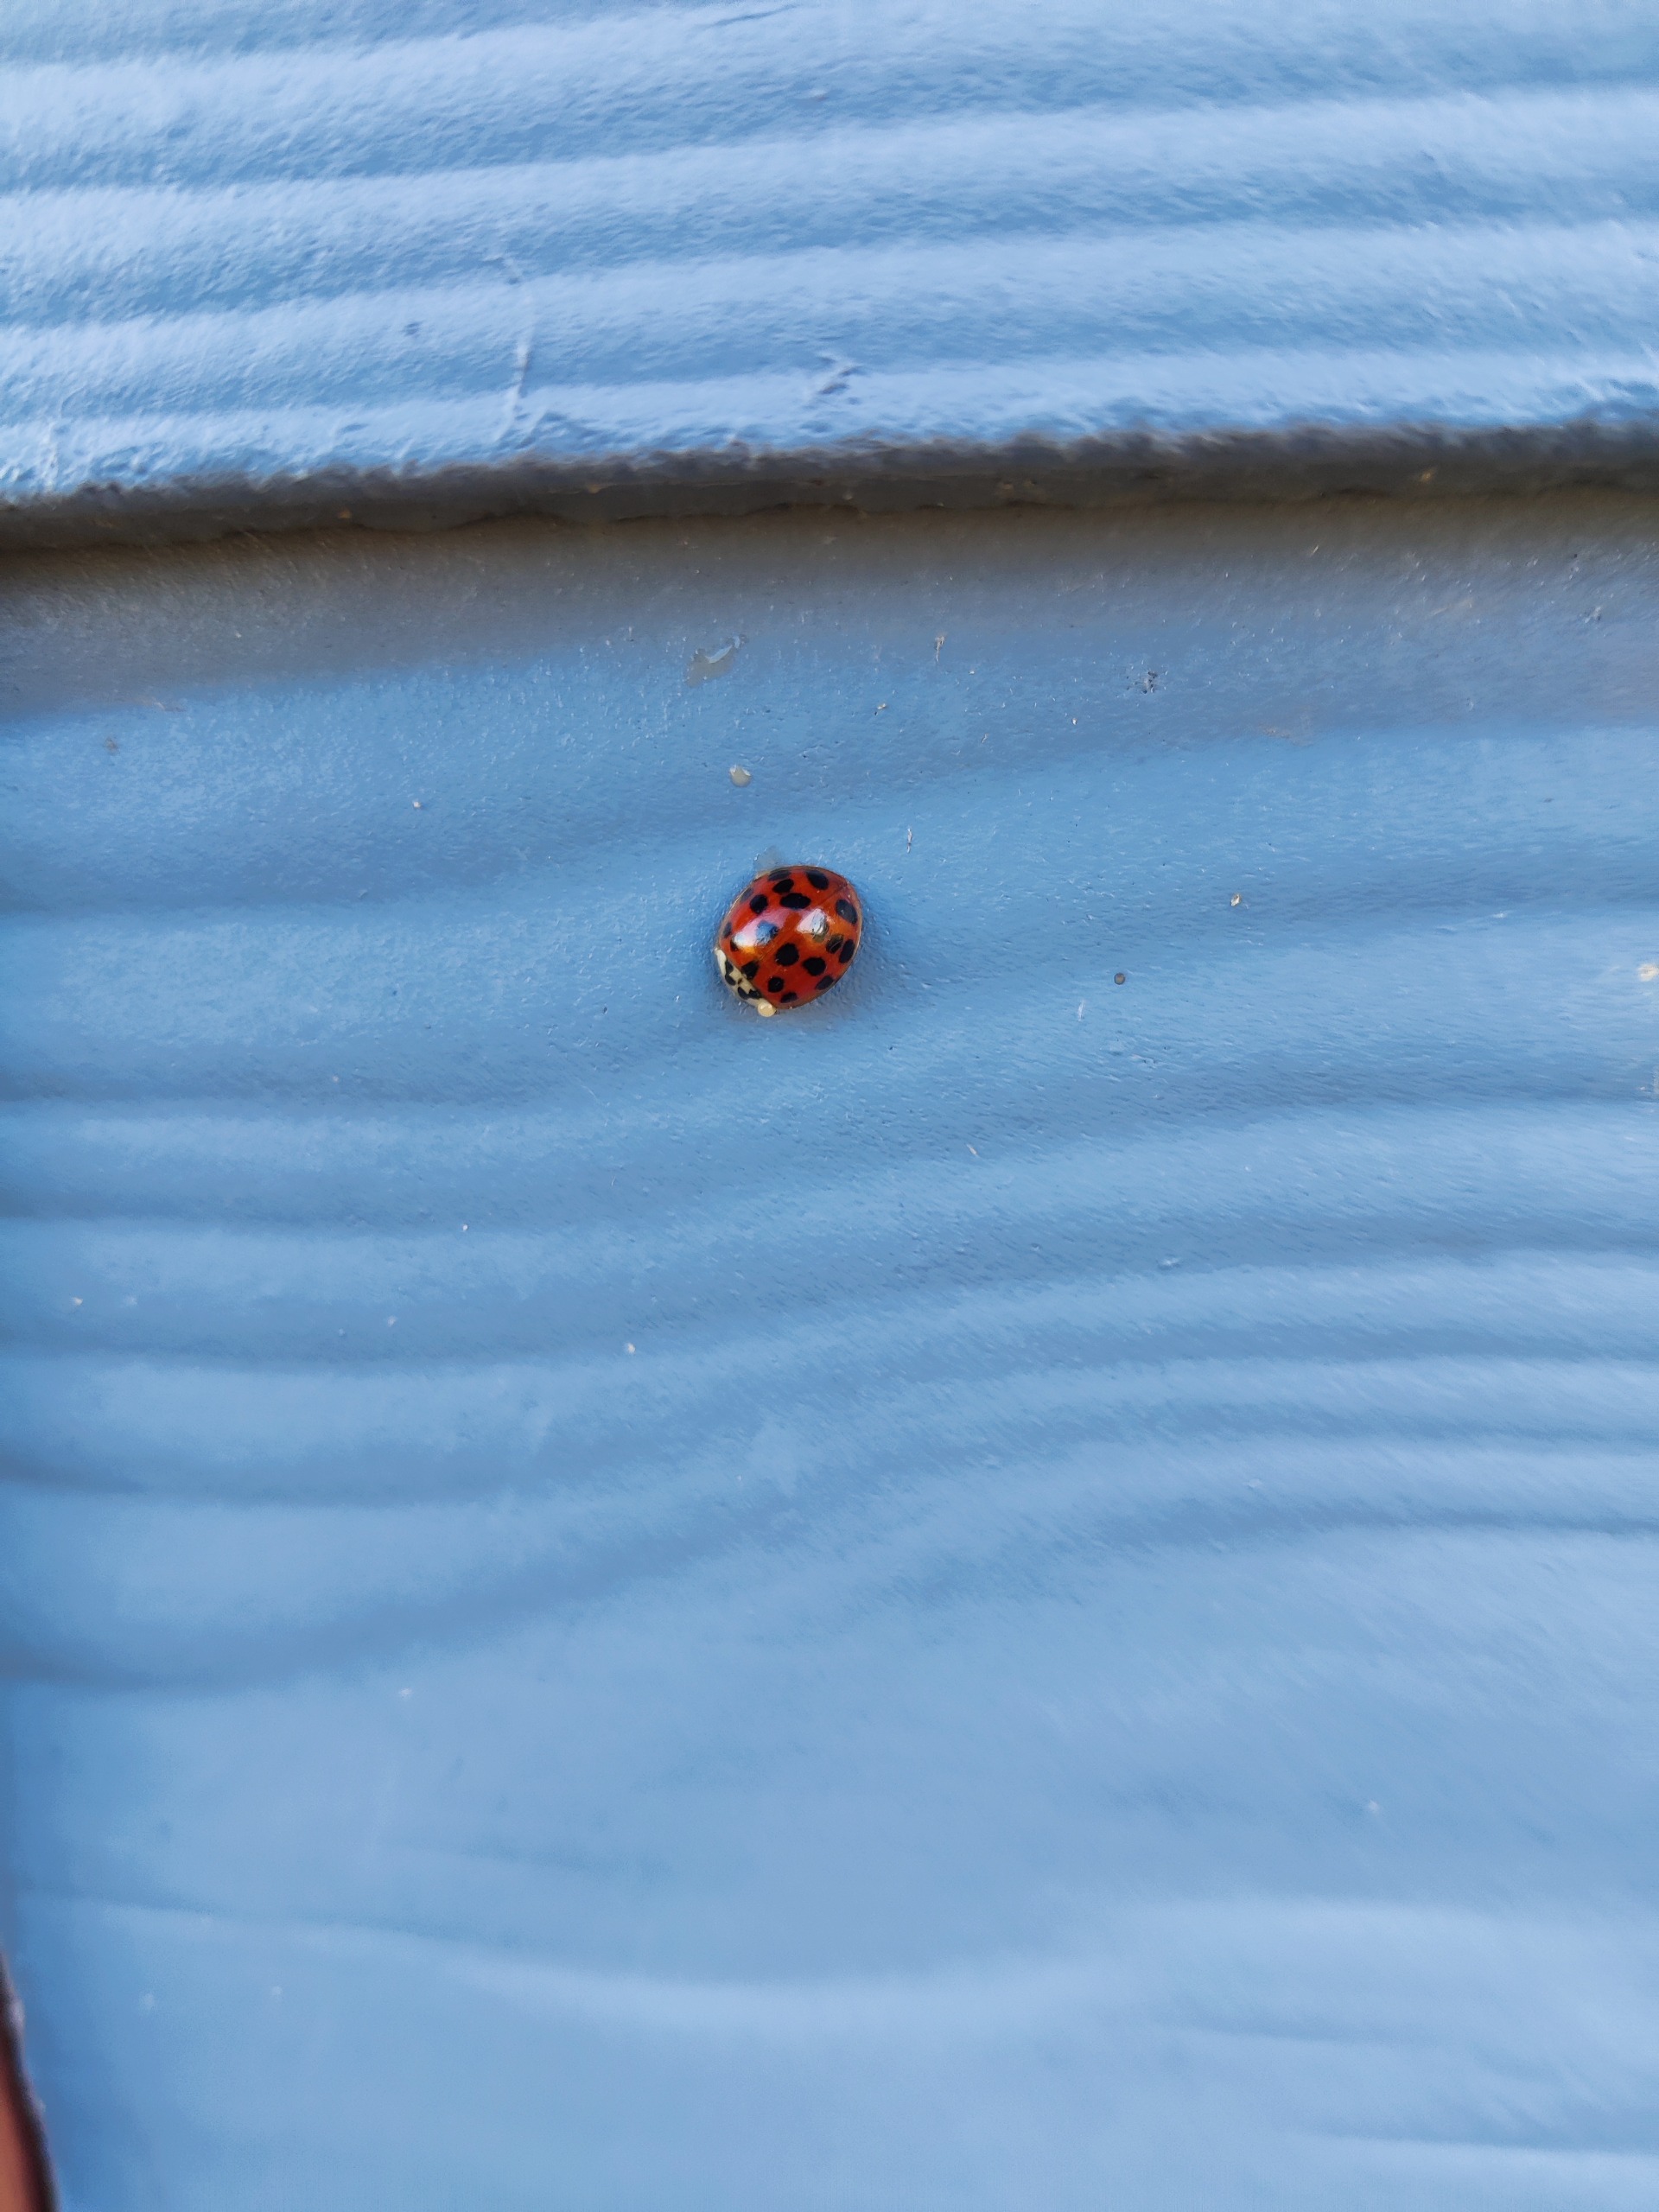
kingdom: Animalia
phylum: Arthropoda
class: Insecta
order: Coleoptera
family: Coccinellidae
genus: Harmonia
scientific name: Harmonia axyridis
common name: Harlekinmariehøne
